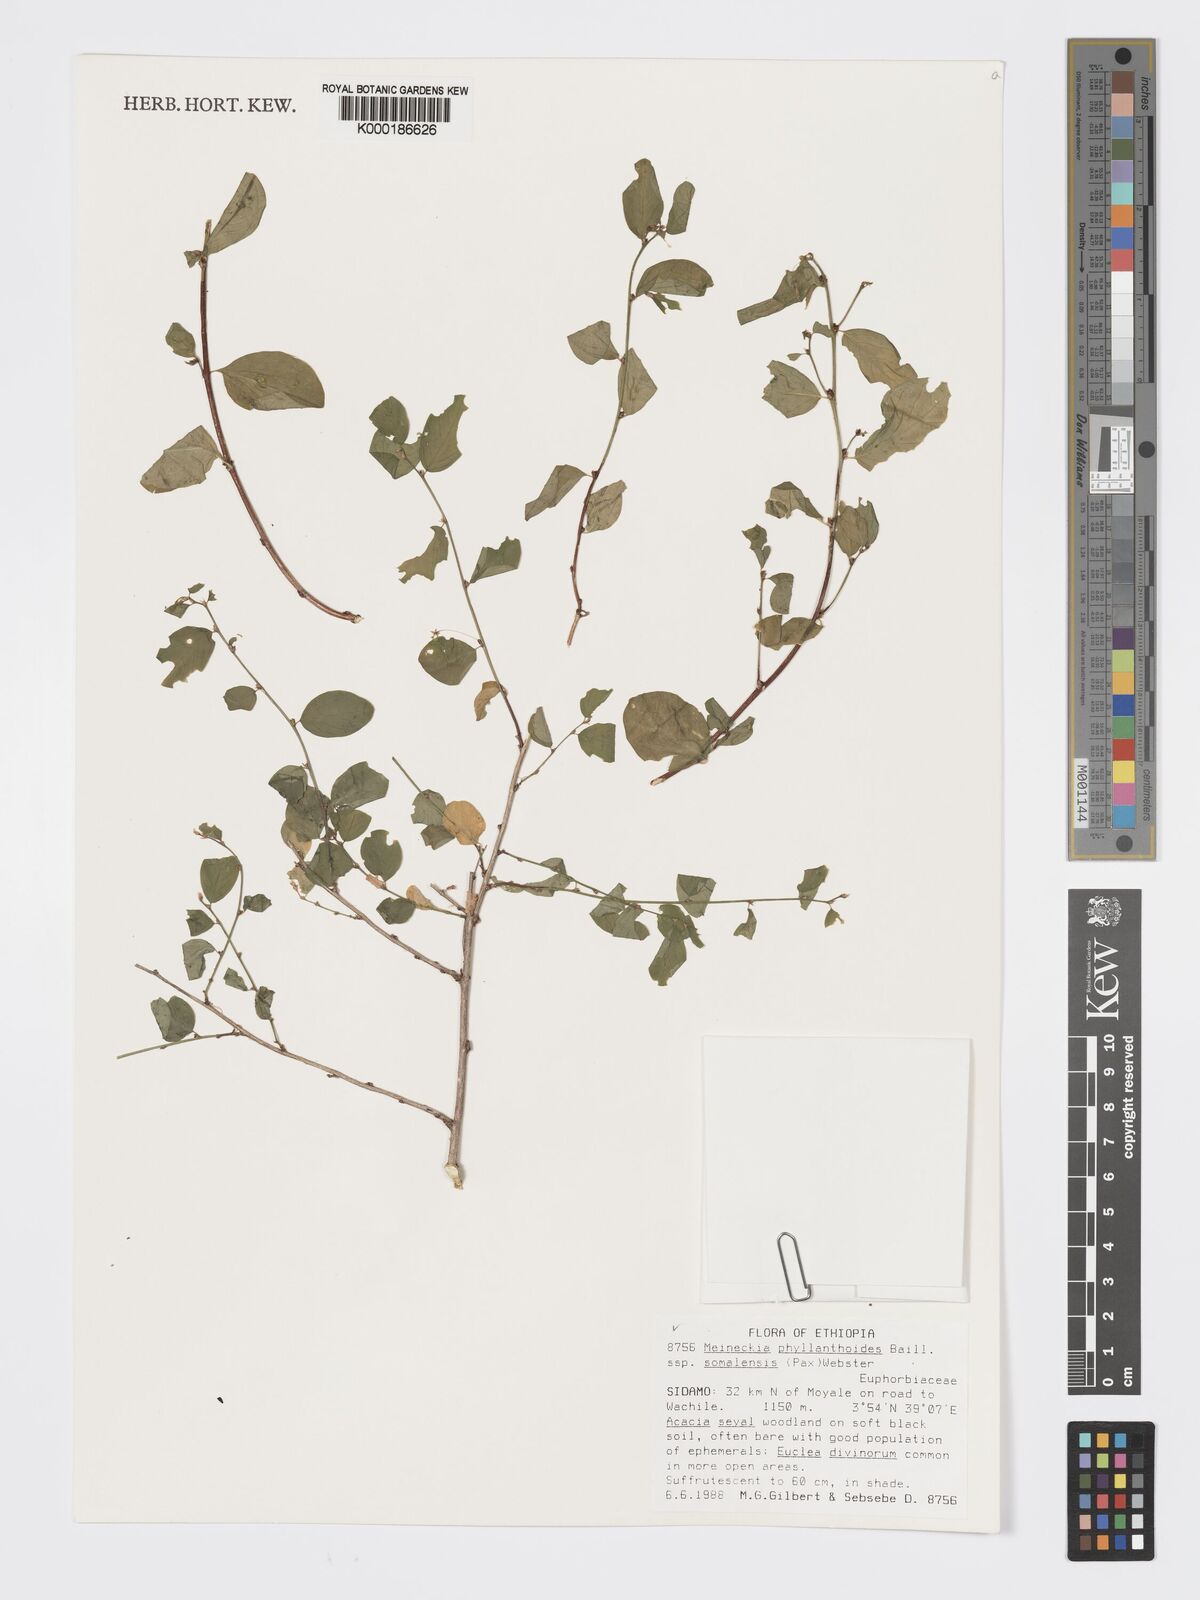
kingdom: Plantae
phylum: Tracheophyta
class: Magnoliopsida
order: Malpighiales
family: Phyllanthaceae
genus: Meineckia
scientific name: Meineckia phyllanthoides
